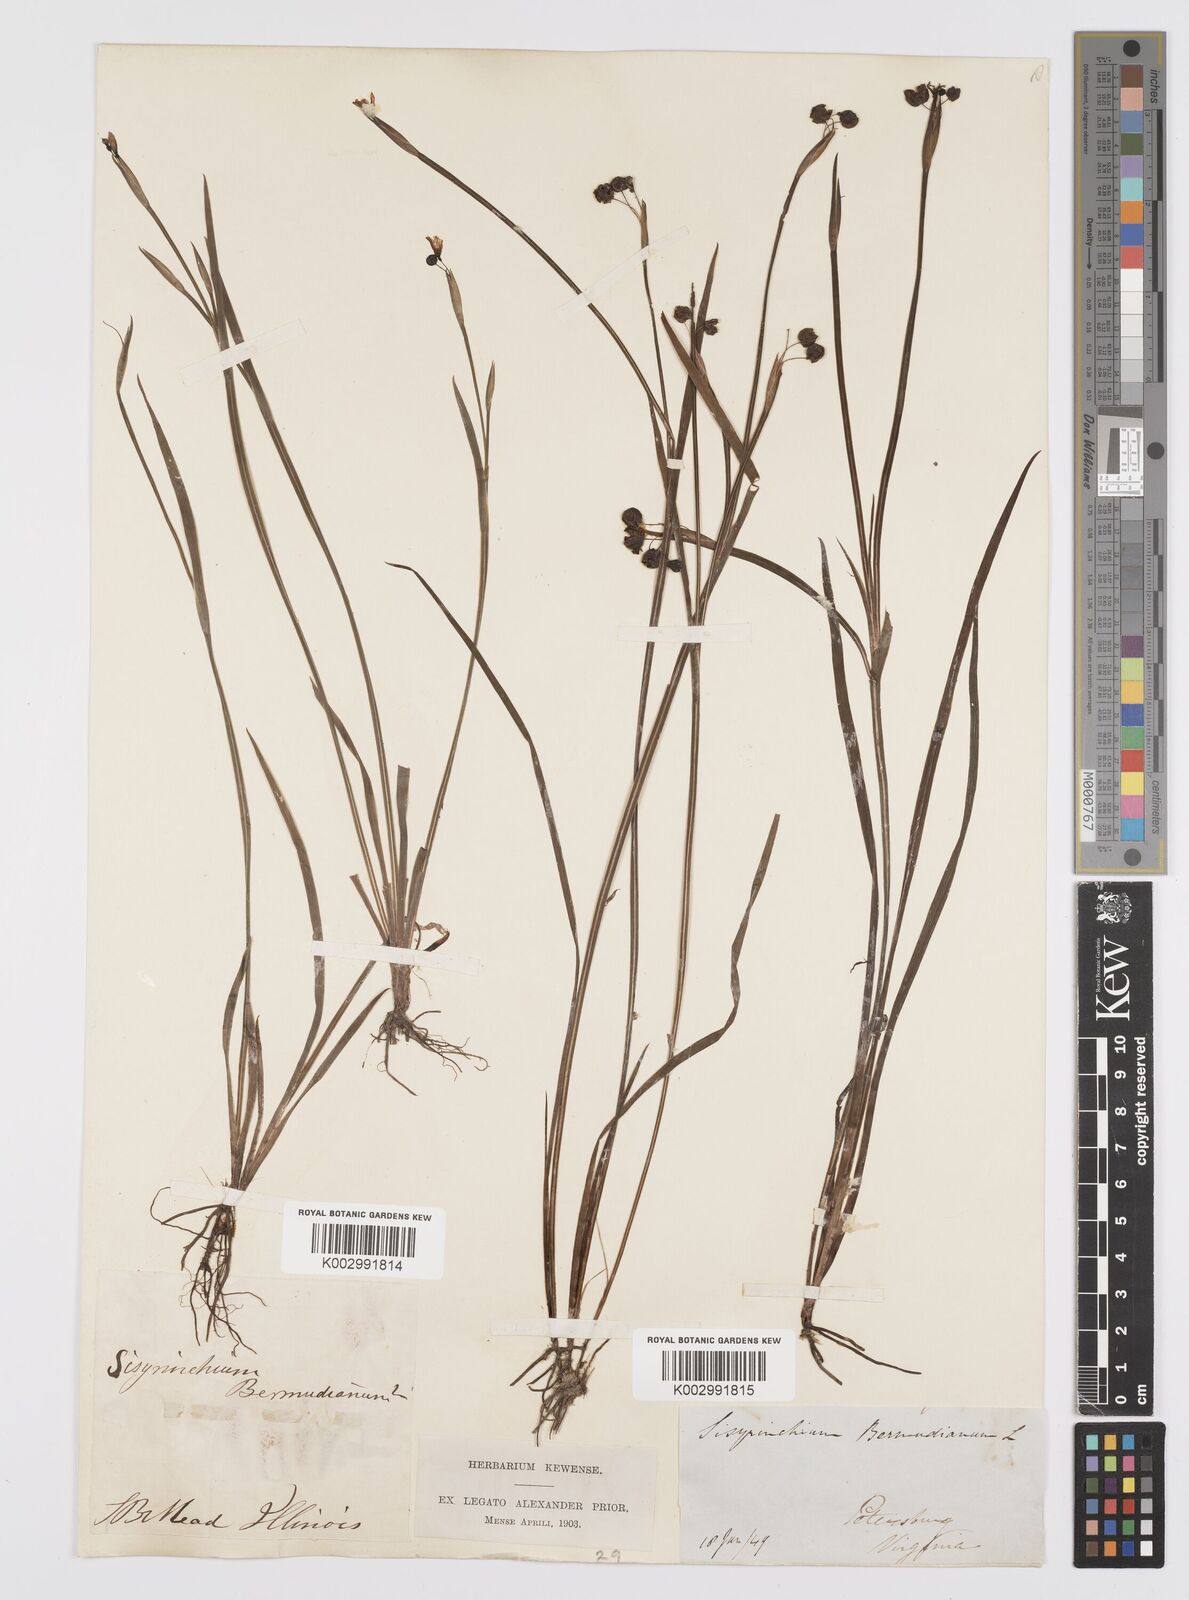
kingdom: Plantae
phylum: Tracheophyta
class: Liliopsida
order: Asparagales
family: Iridaceae
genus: Sisyrinchium
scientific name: Sisyrinchium bermudiana
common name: Blue-eyed-grass
